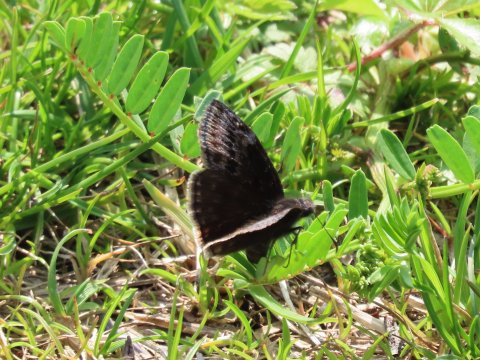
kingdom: Animalia
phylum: Arthropoda
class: Insecta
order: Lepidoptera
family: Hesperiidae
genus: Gesta
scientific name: Gesta
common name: Wild Indigo Duskywing
